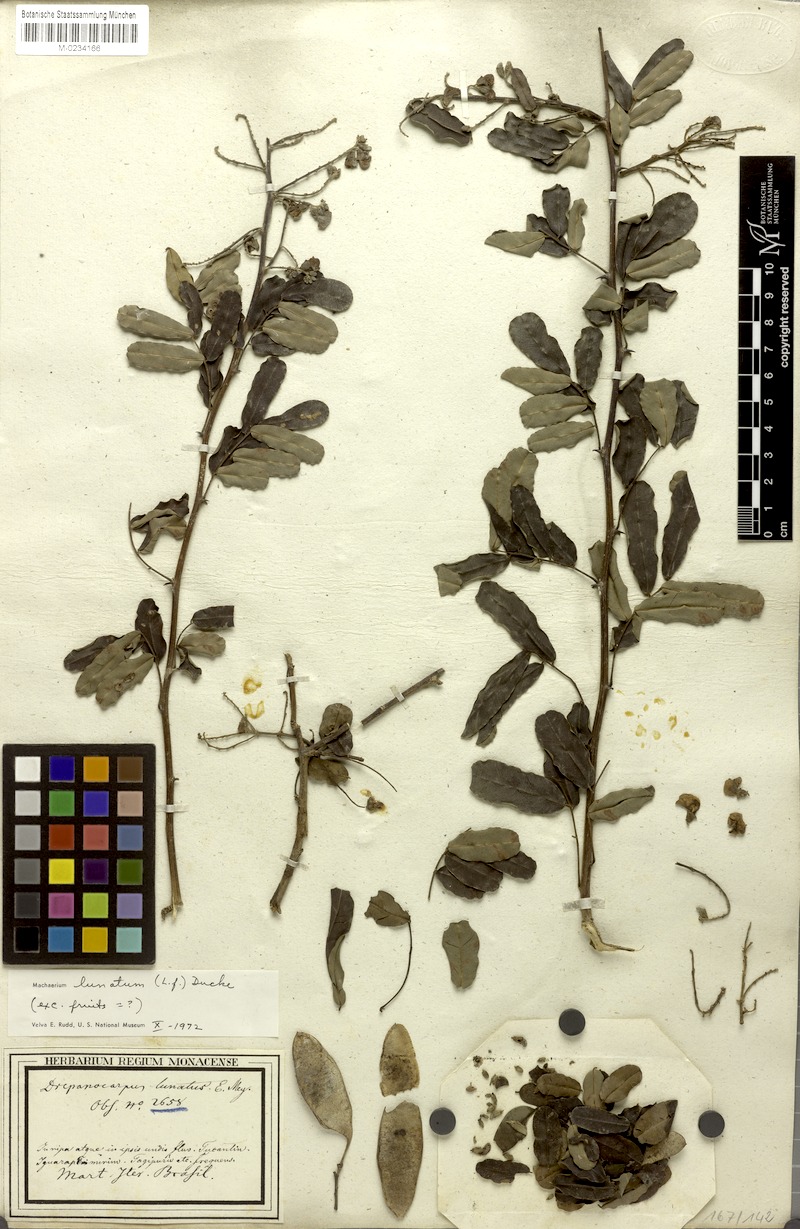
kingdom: Plantae
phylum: Tracheophyta
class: Magnoliopsida
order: Fabales
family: Fabaceae
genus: Machaerium
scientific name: Machaerium lunatum
